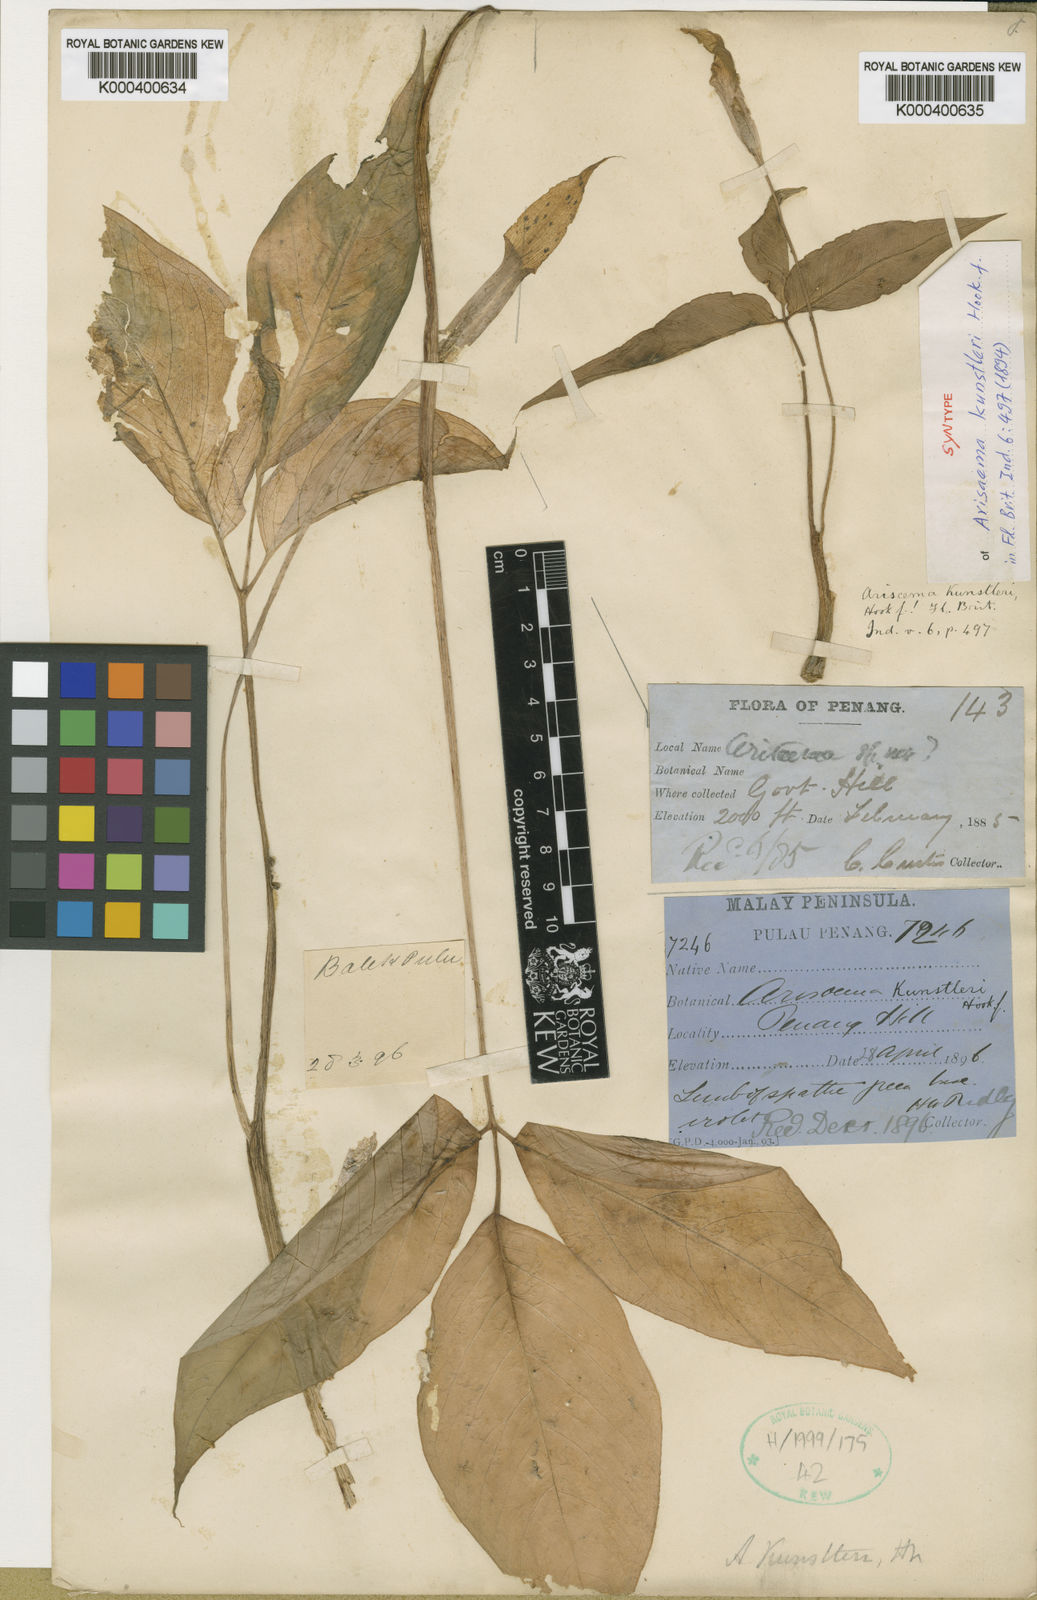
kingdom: Plantae
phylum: Tracheophyta
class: Liliopsida
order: Alismatales
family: Araceae
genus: Arisaema
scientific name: Arisaema roxburghii
